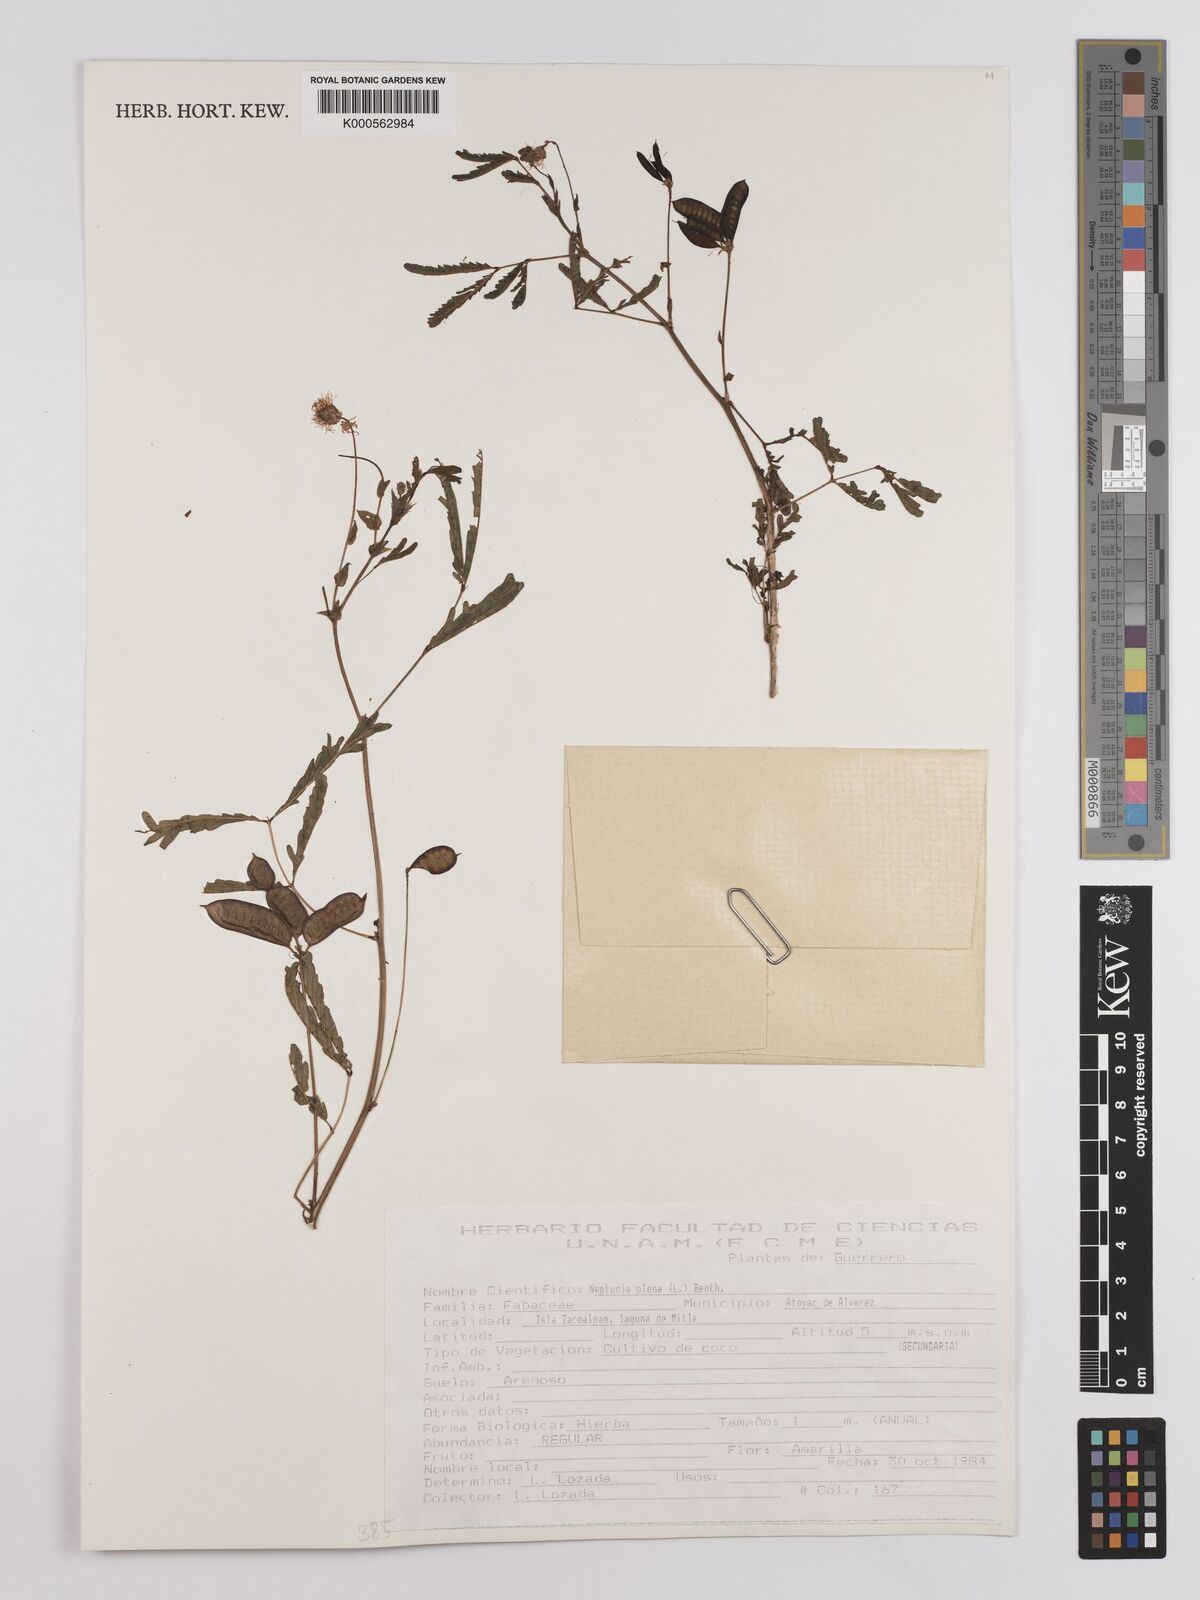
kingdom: Plantae
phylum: Tracheophyta
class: Magnoliopsida
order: Fabales
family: Fabaceae
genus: Neptunia
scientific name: Neptunia plena
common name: Dead and awake
